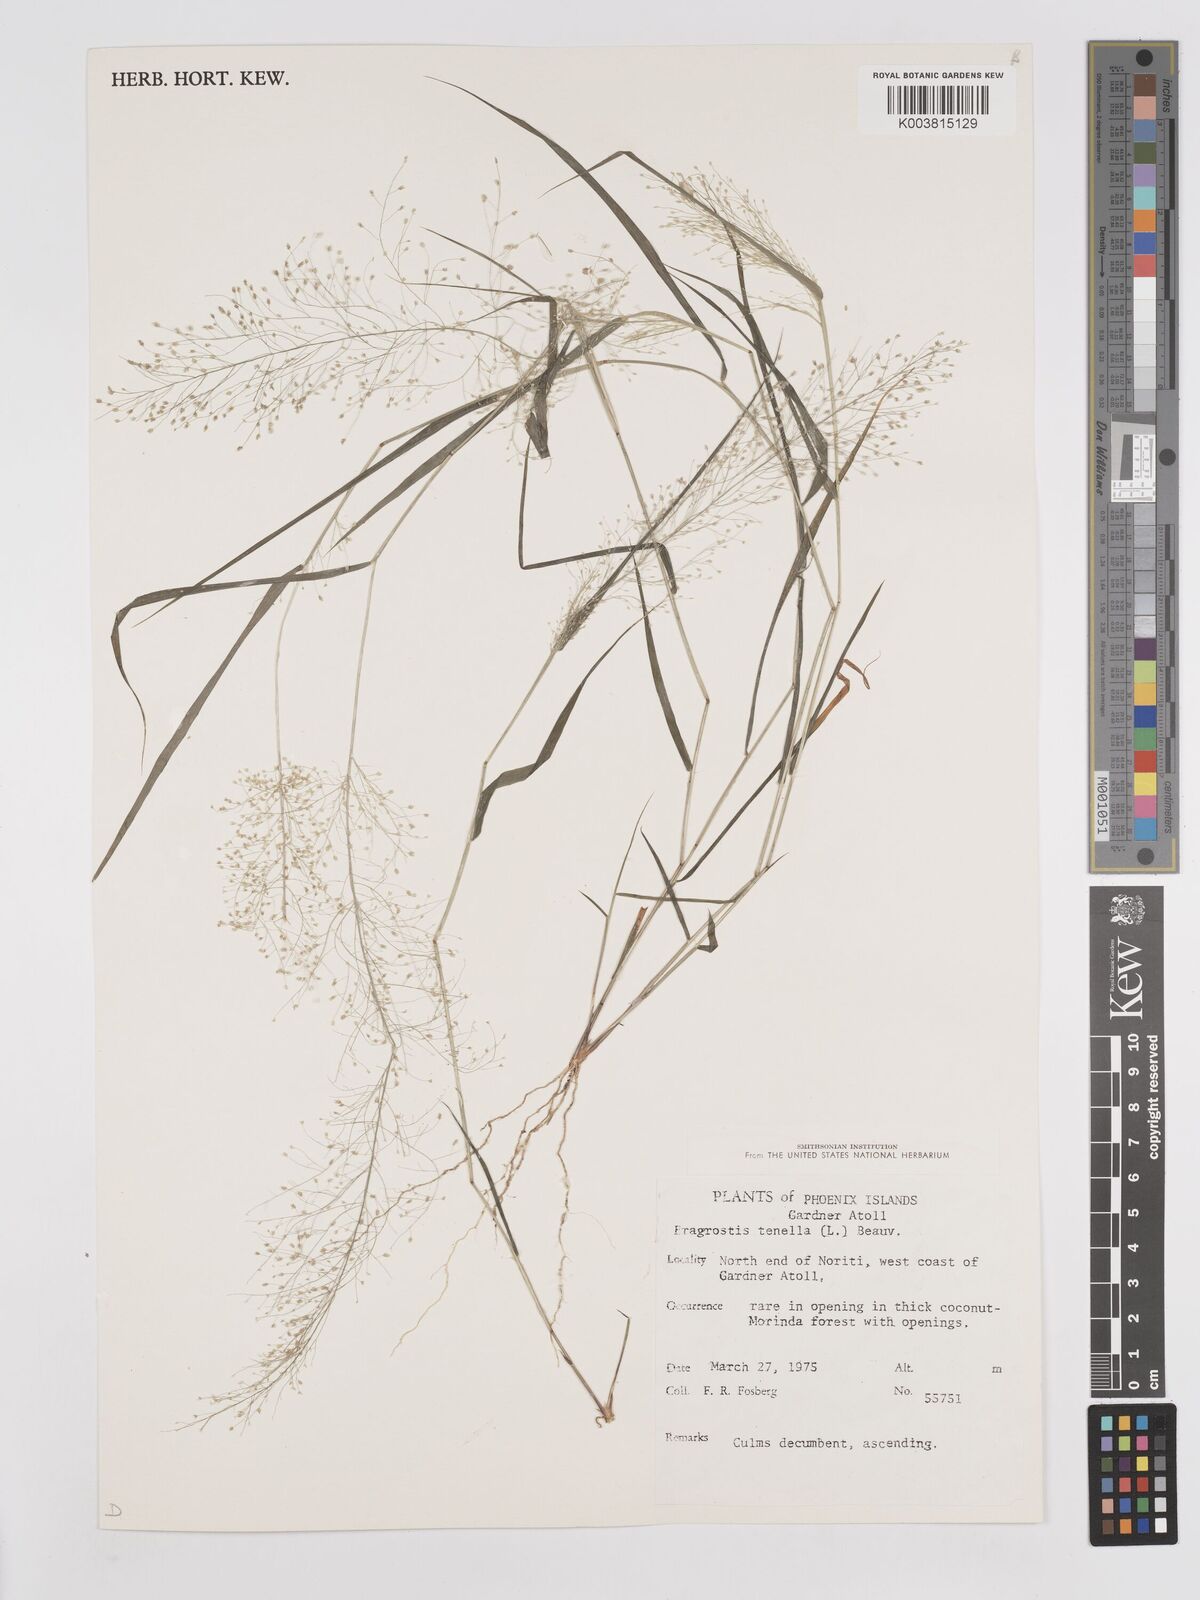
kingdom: Plantae
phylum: Tracheophyta
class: Liliopsida
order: Poales
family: Poaceae
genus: Eragrostis
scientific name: Eragrostis tenella
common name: Japanese lovegrass
